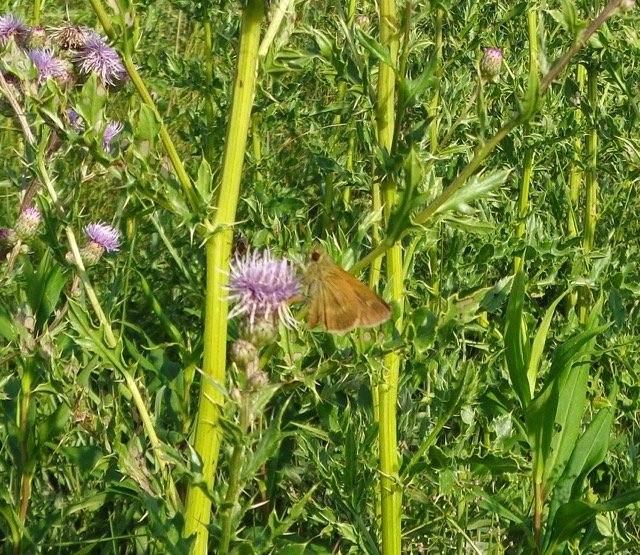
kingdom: Animalia
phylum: Arthropoda
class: Insecta
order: Lepidoptera
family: Hesperiidae
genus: Polites
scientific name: Polites egeremet
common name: Northern Broken-Dash
